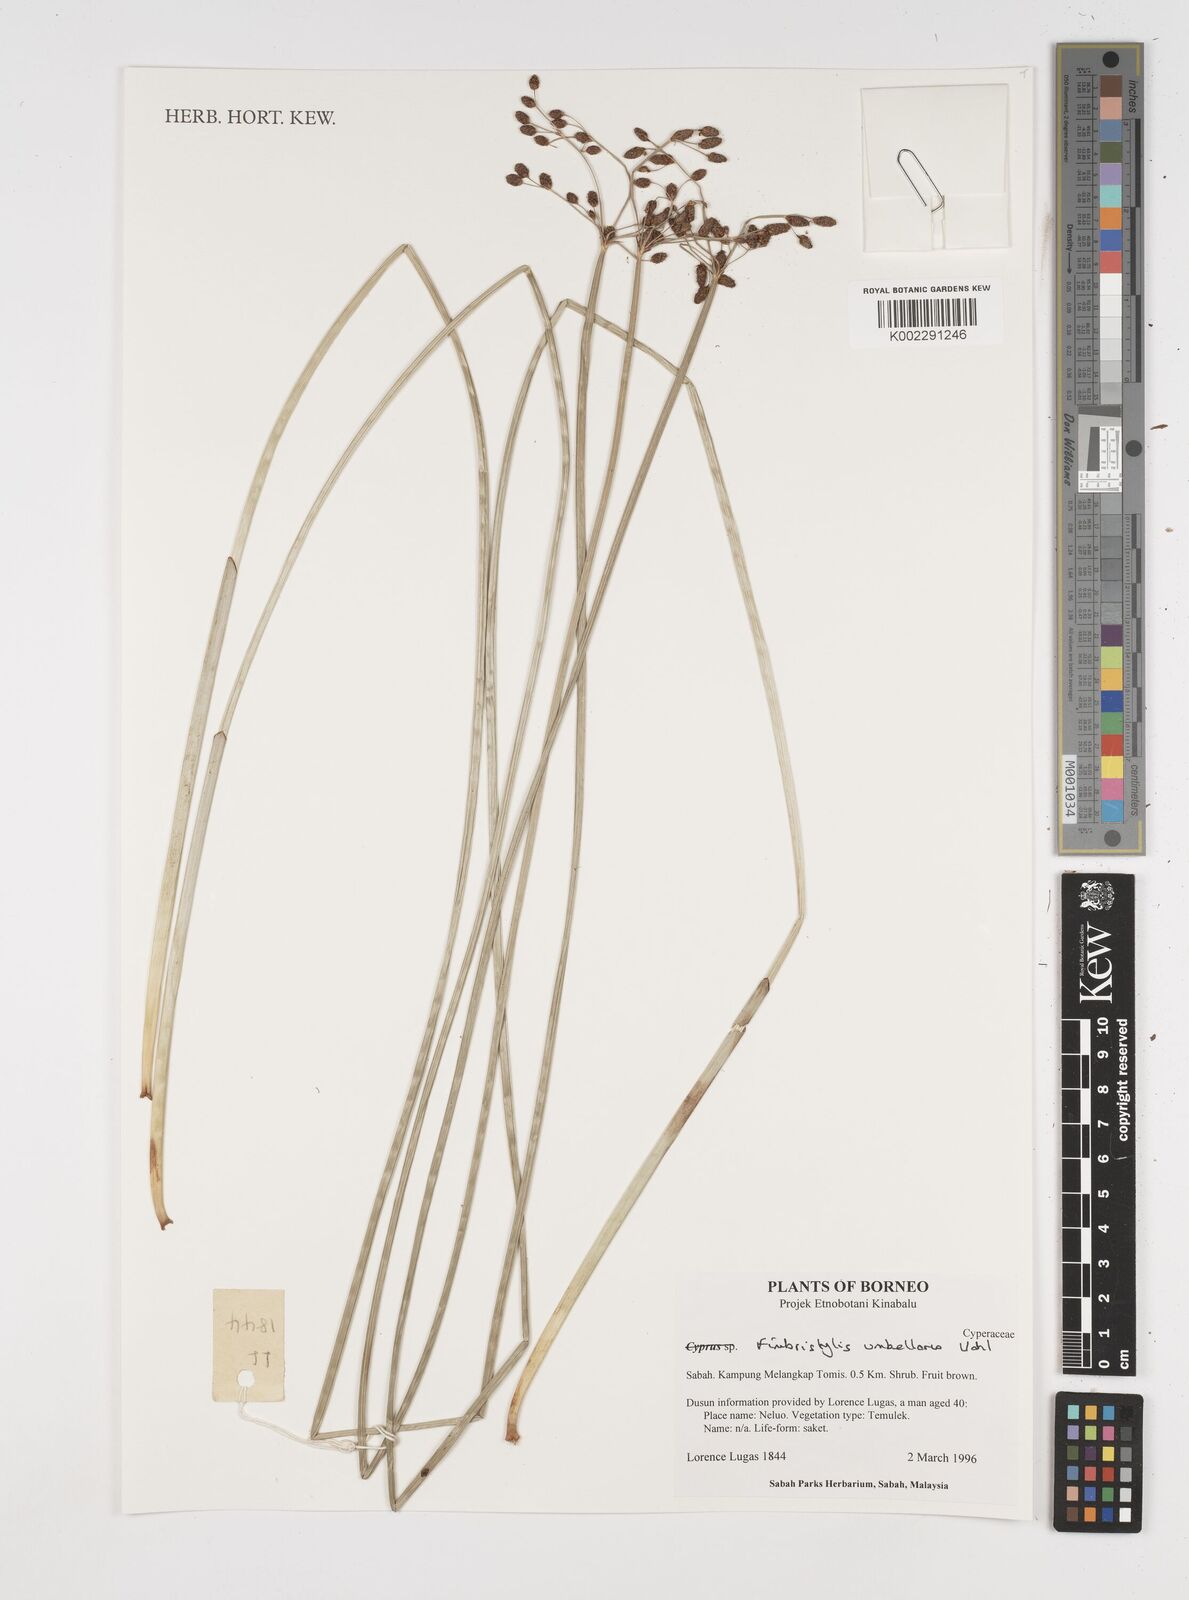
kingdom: Plantae
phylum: Tracheophyta
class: Liliopsida
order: Poales
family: Cyperaceae
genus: Fimbristylis
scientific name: Fimbristylis umbellaris
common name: Globular fimbristylis
